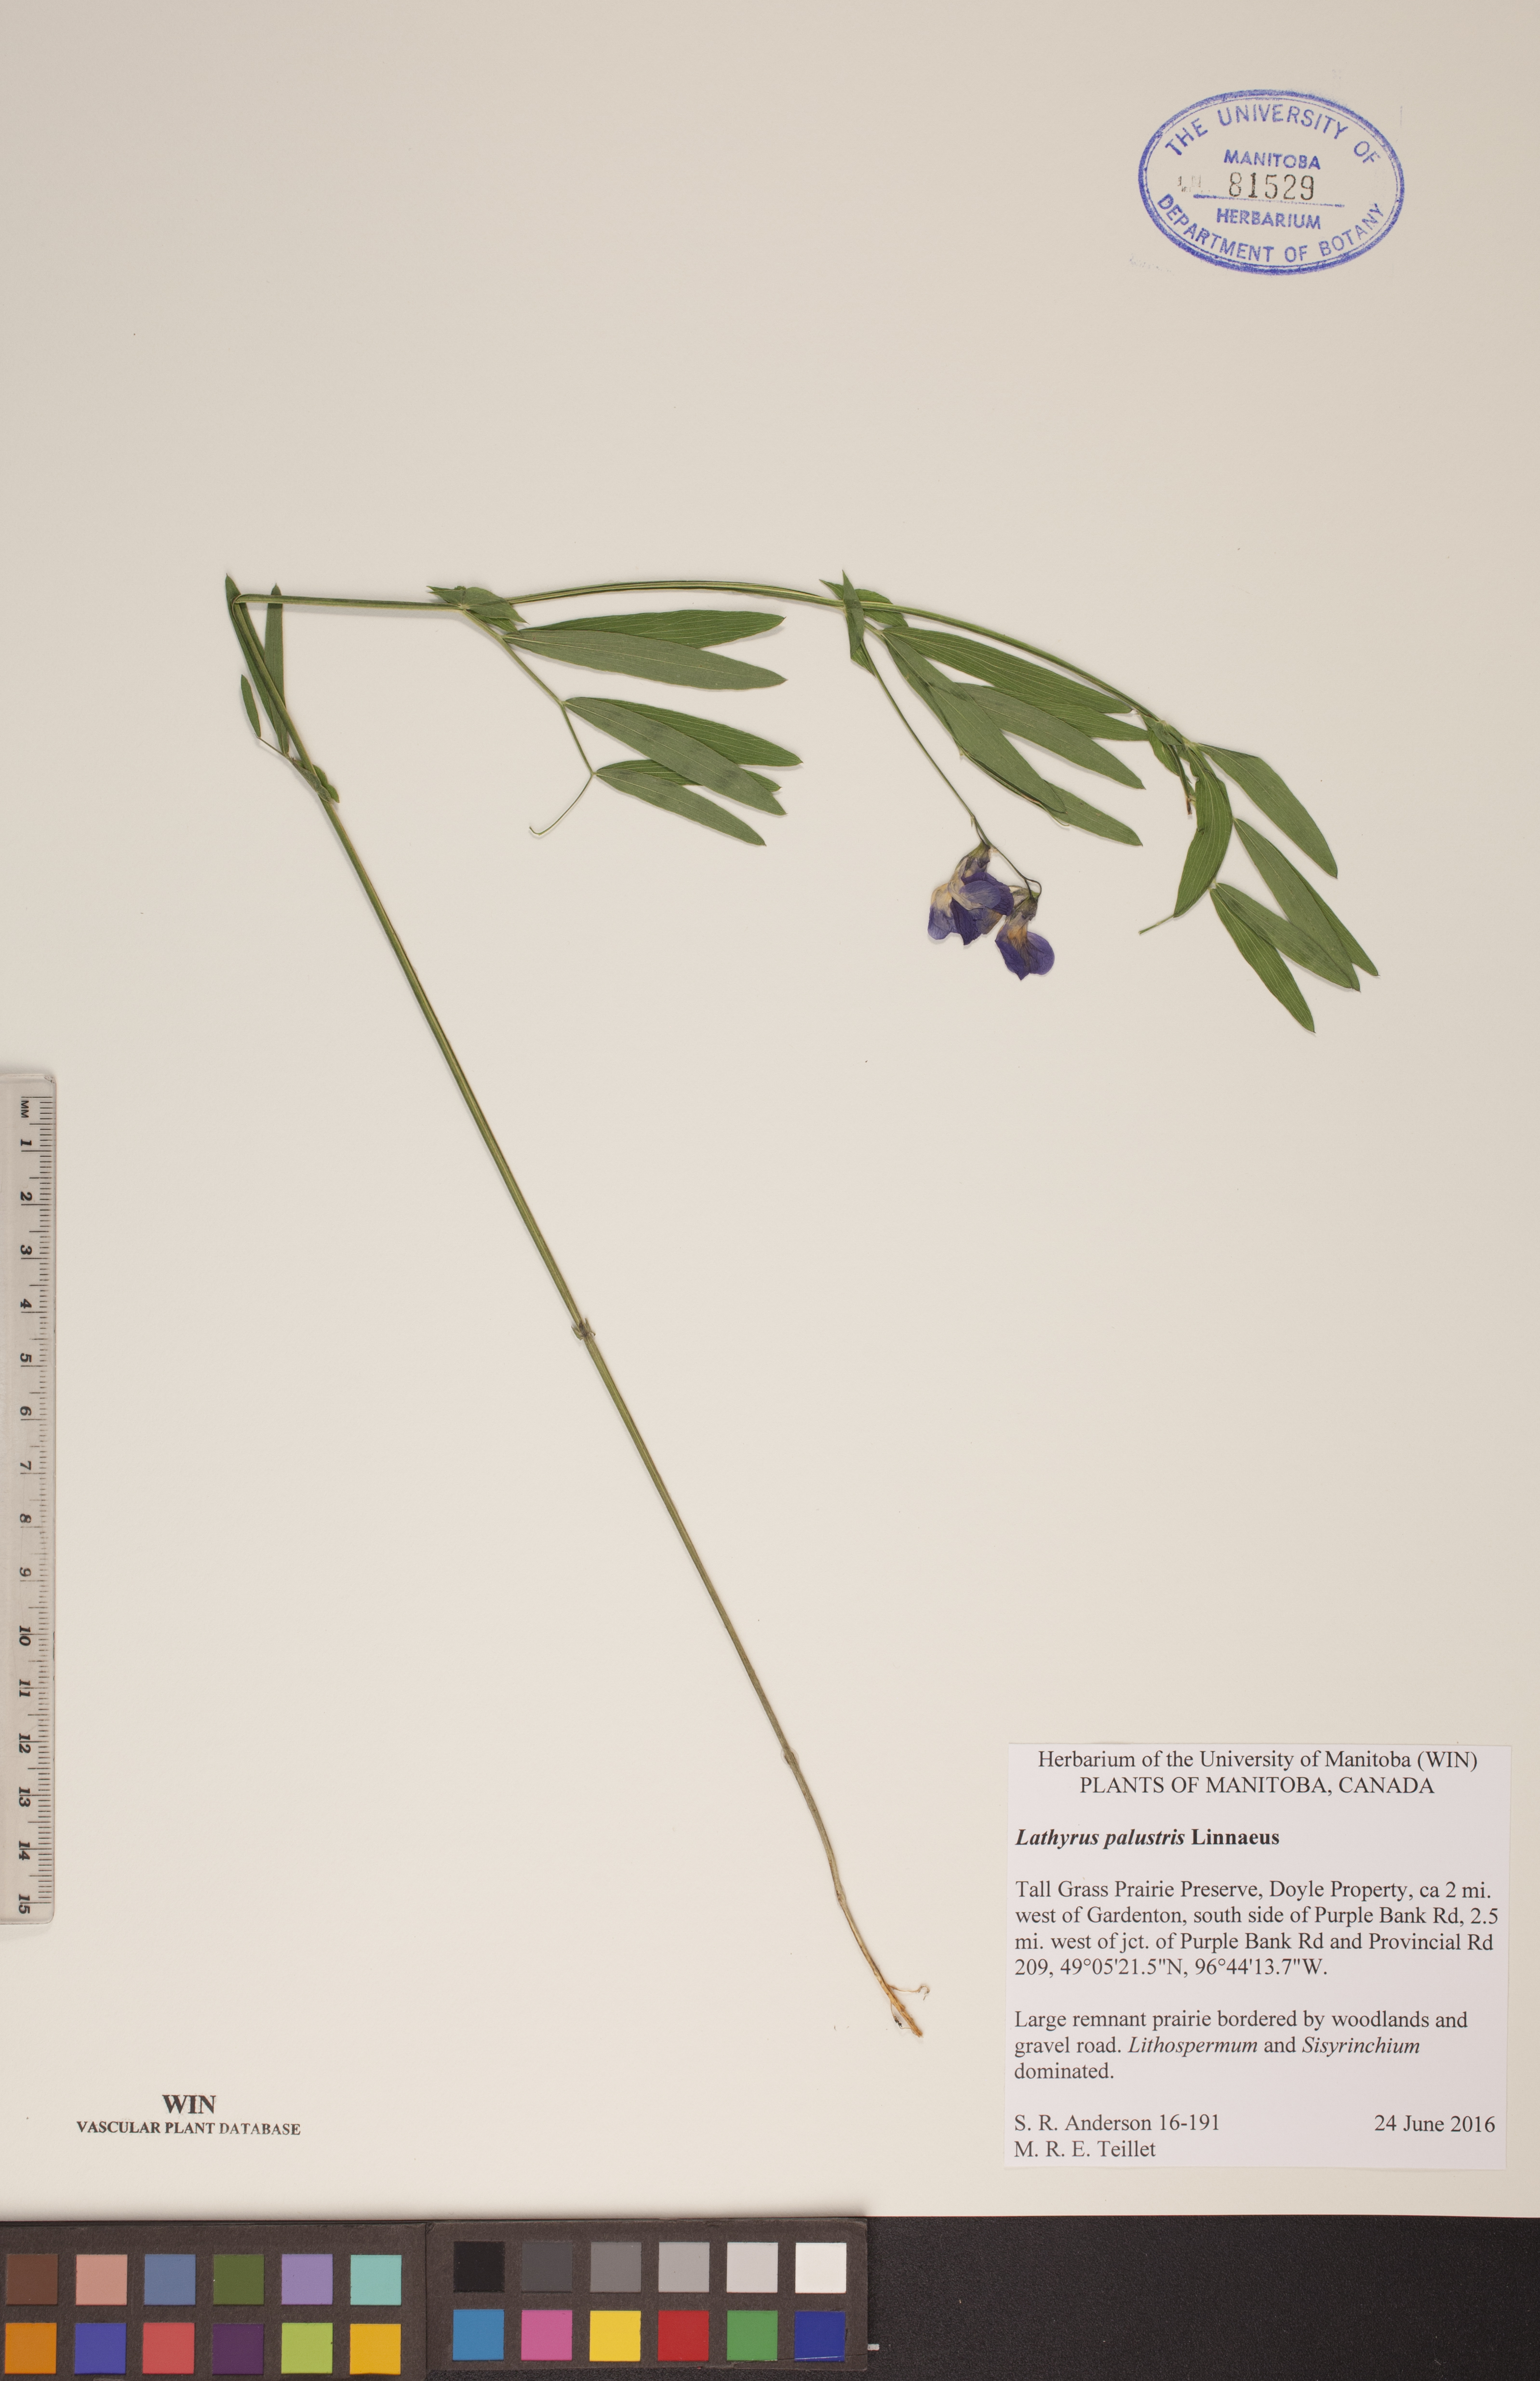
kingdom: Plantae
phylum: Tracheophyta
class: Magnoliopsida
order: Fabales
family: Fabaceae
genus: Lathyrus
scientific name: Lathyrus palustris
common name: Marsh pea
